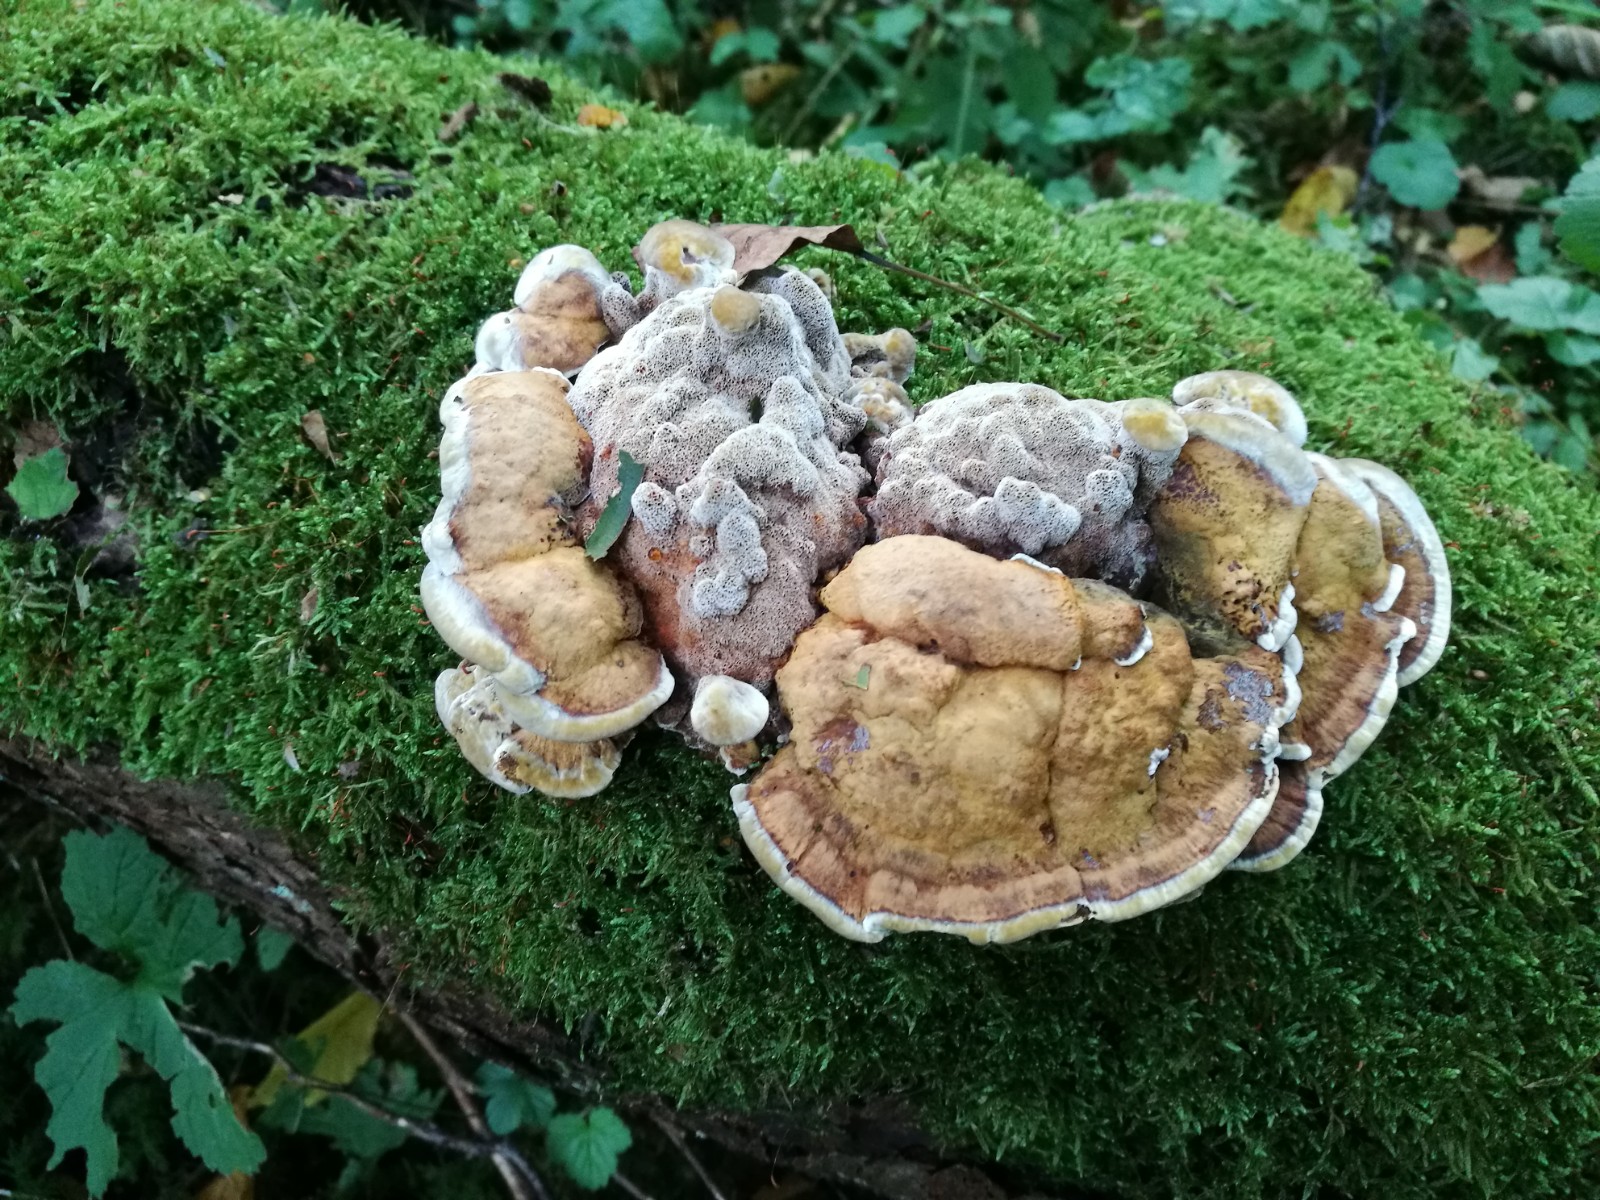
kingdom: Fungi
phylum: Basidiomycota
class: Agaricomycetes
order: Hymenochaetales
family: Hymenochaetaceae
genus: Xanthoporia
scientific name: Xanthoporia radiata
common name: elle-spejlporesvamp
